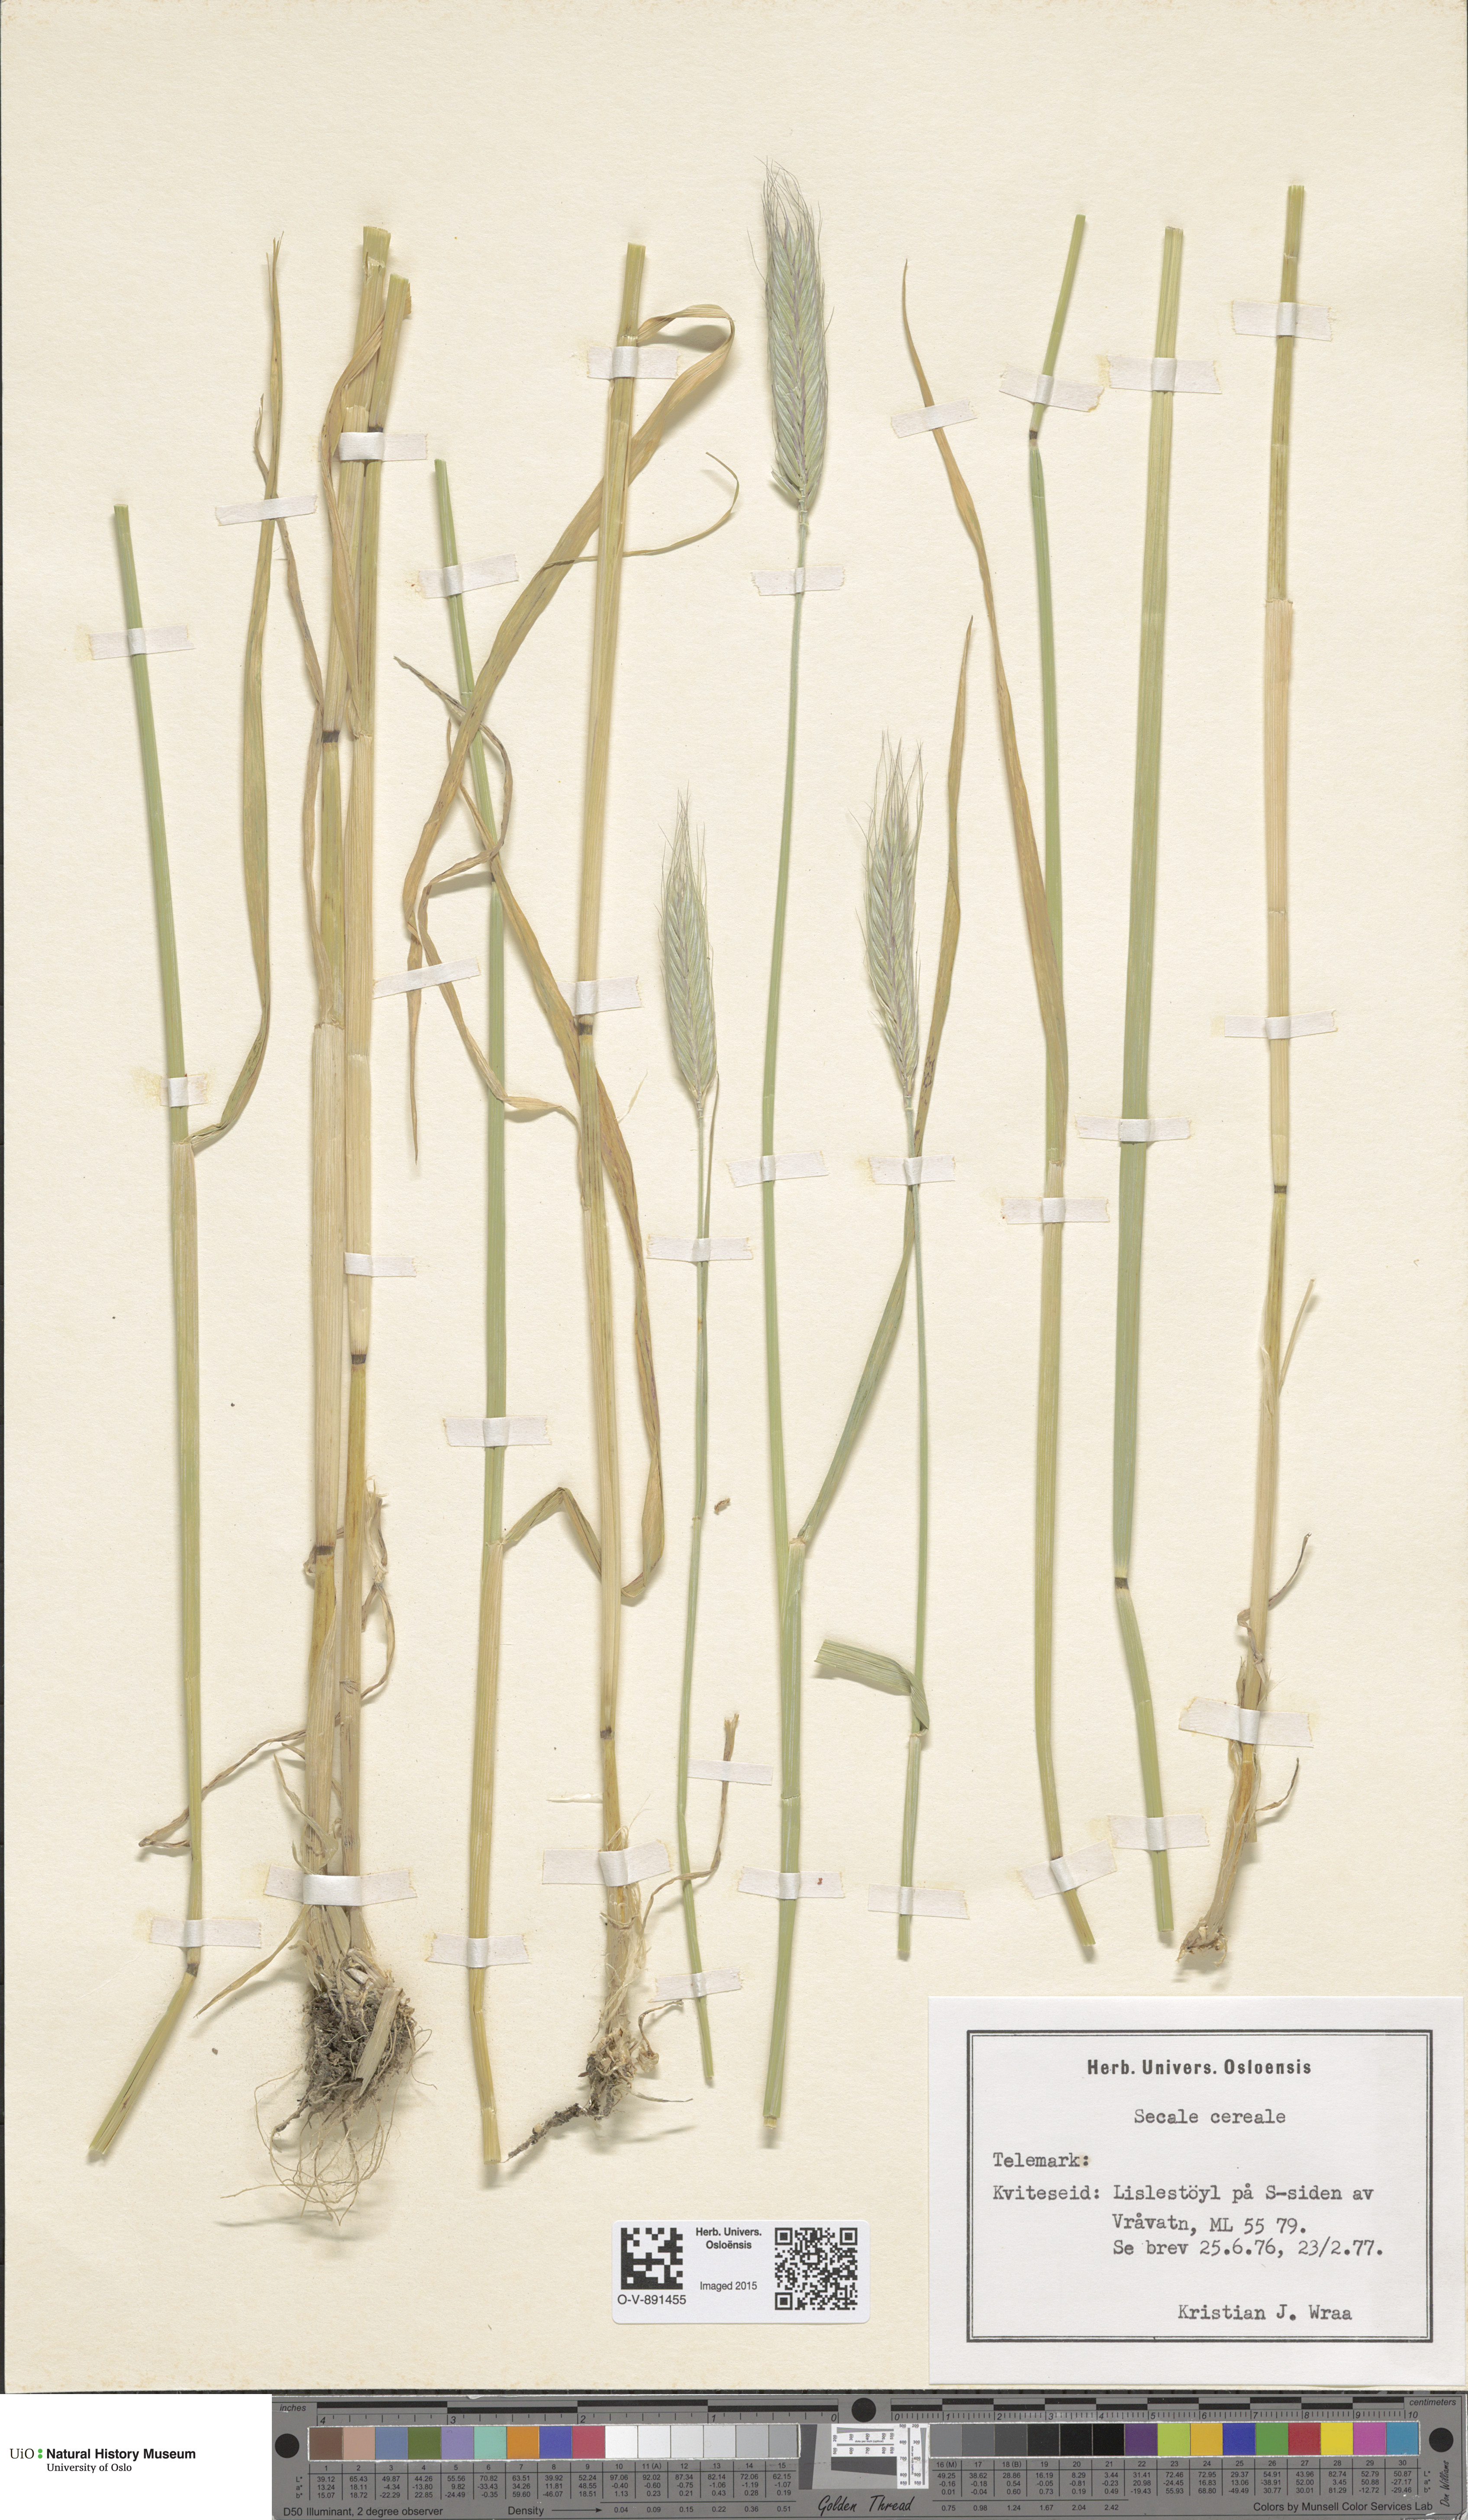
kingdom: Plantae
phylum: Tracheophyta
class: Liliopsida
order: Poales
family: Poaceae
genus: Secale
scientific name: Secale cereale
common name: Rye
